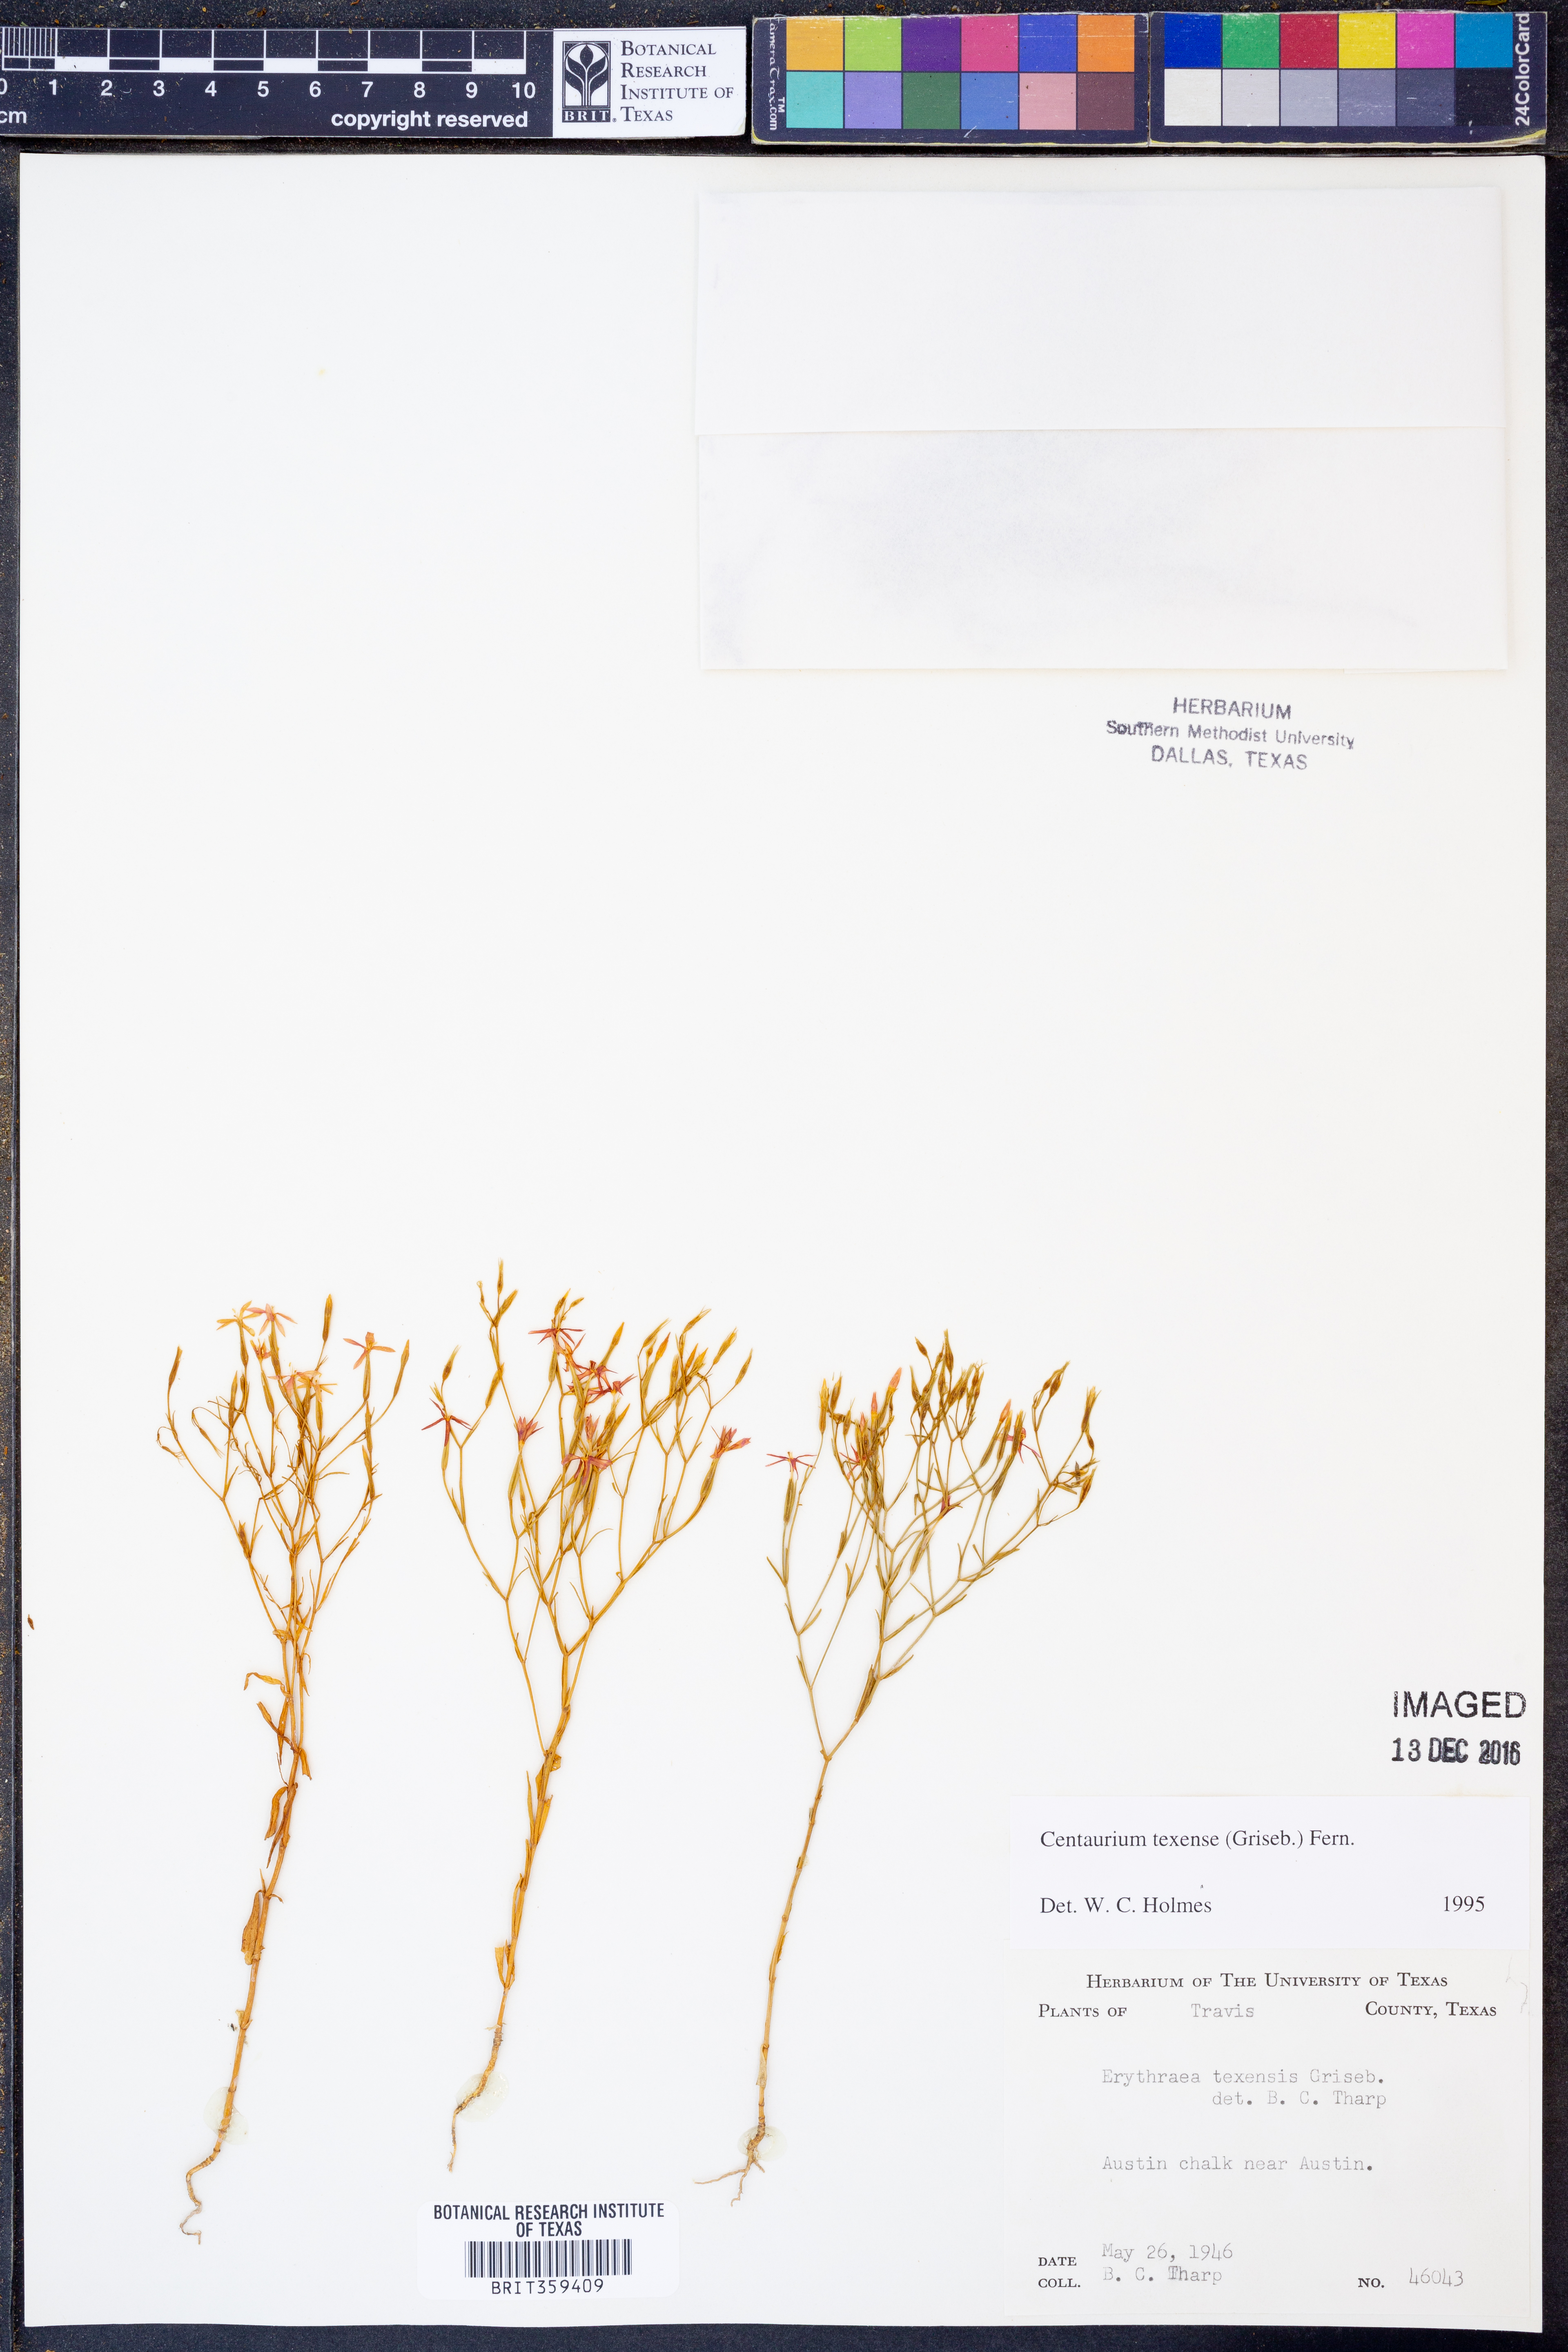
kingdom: Plantae
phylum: Tracheophyta
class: Magnoliopsida
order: Gentianales
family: Gentianaceae
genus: Zeltnera
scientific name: Zeltnera texensis
